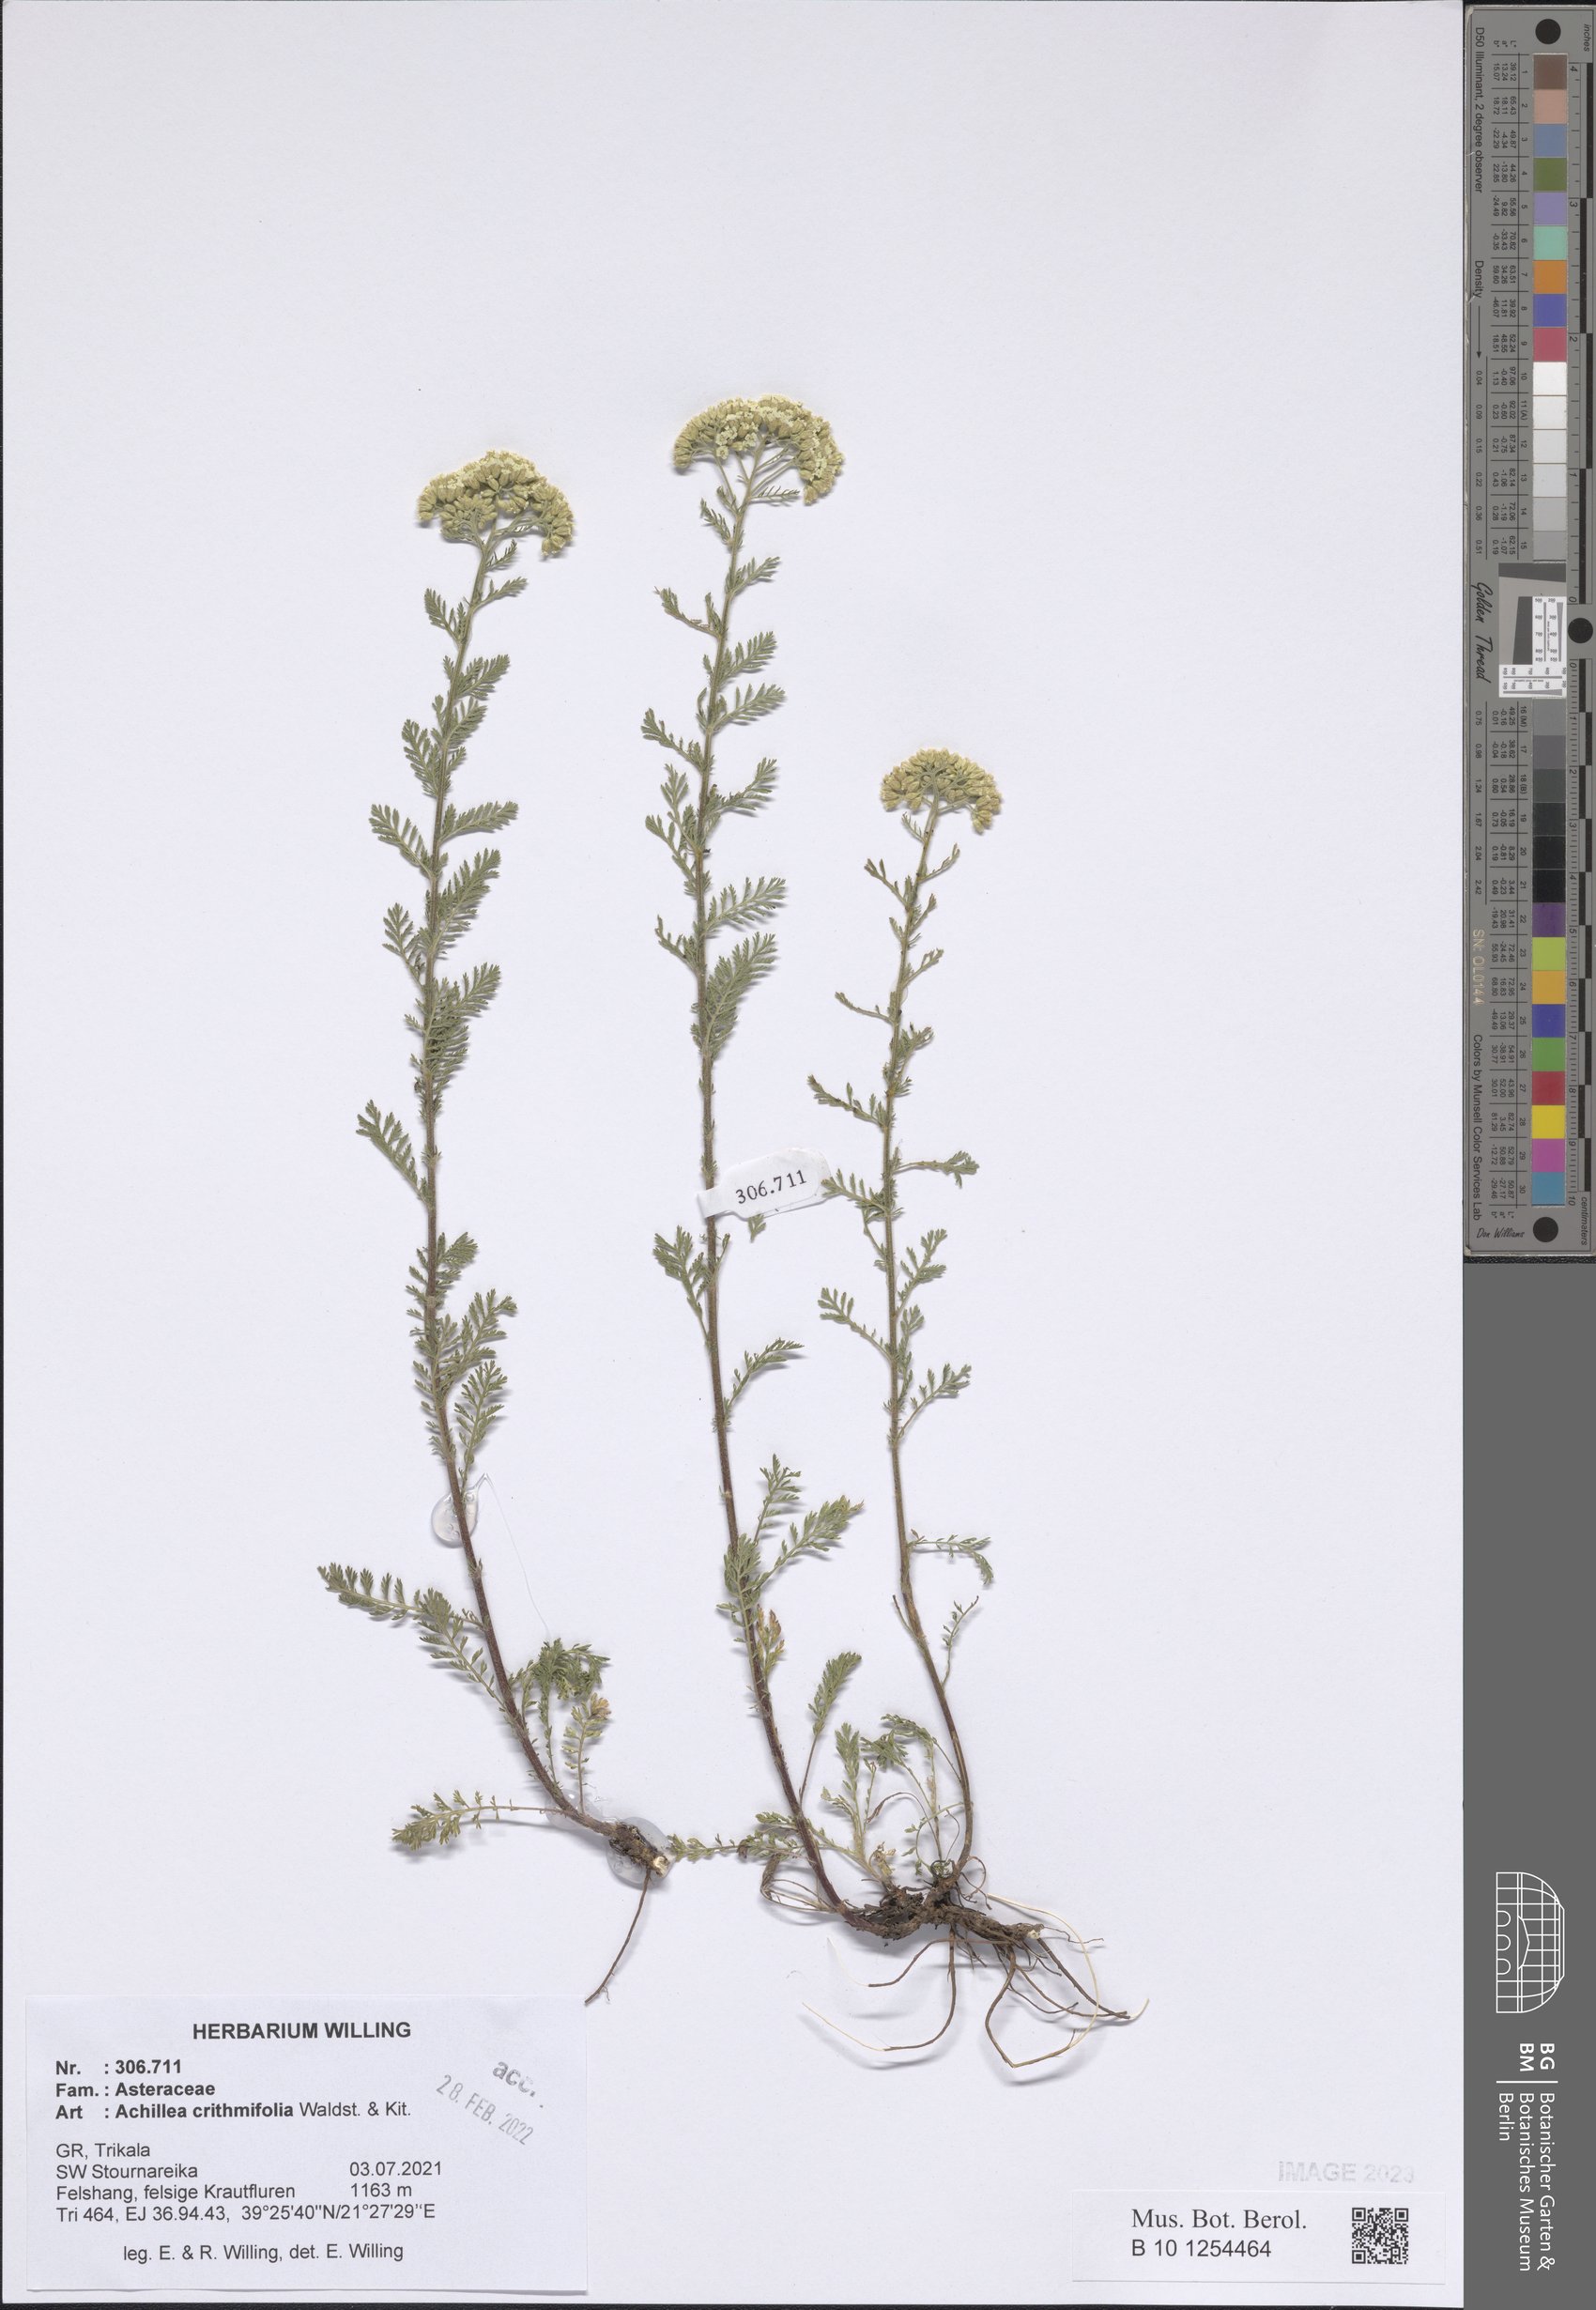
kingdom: Plantae
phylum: Tracheophyta
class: Magnoliopsida
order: Asterales
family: Asteraceae
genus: Achillea
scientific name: Achillea crithmifolia
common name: Yarrow
